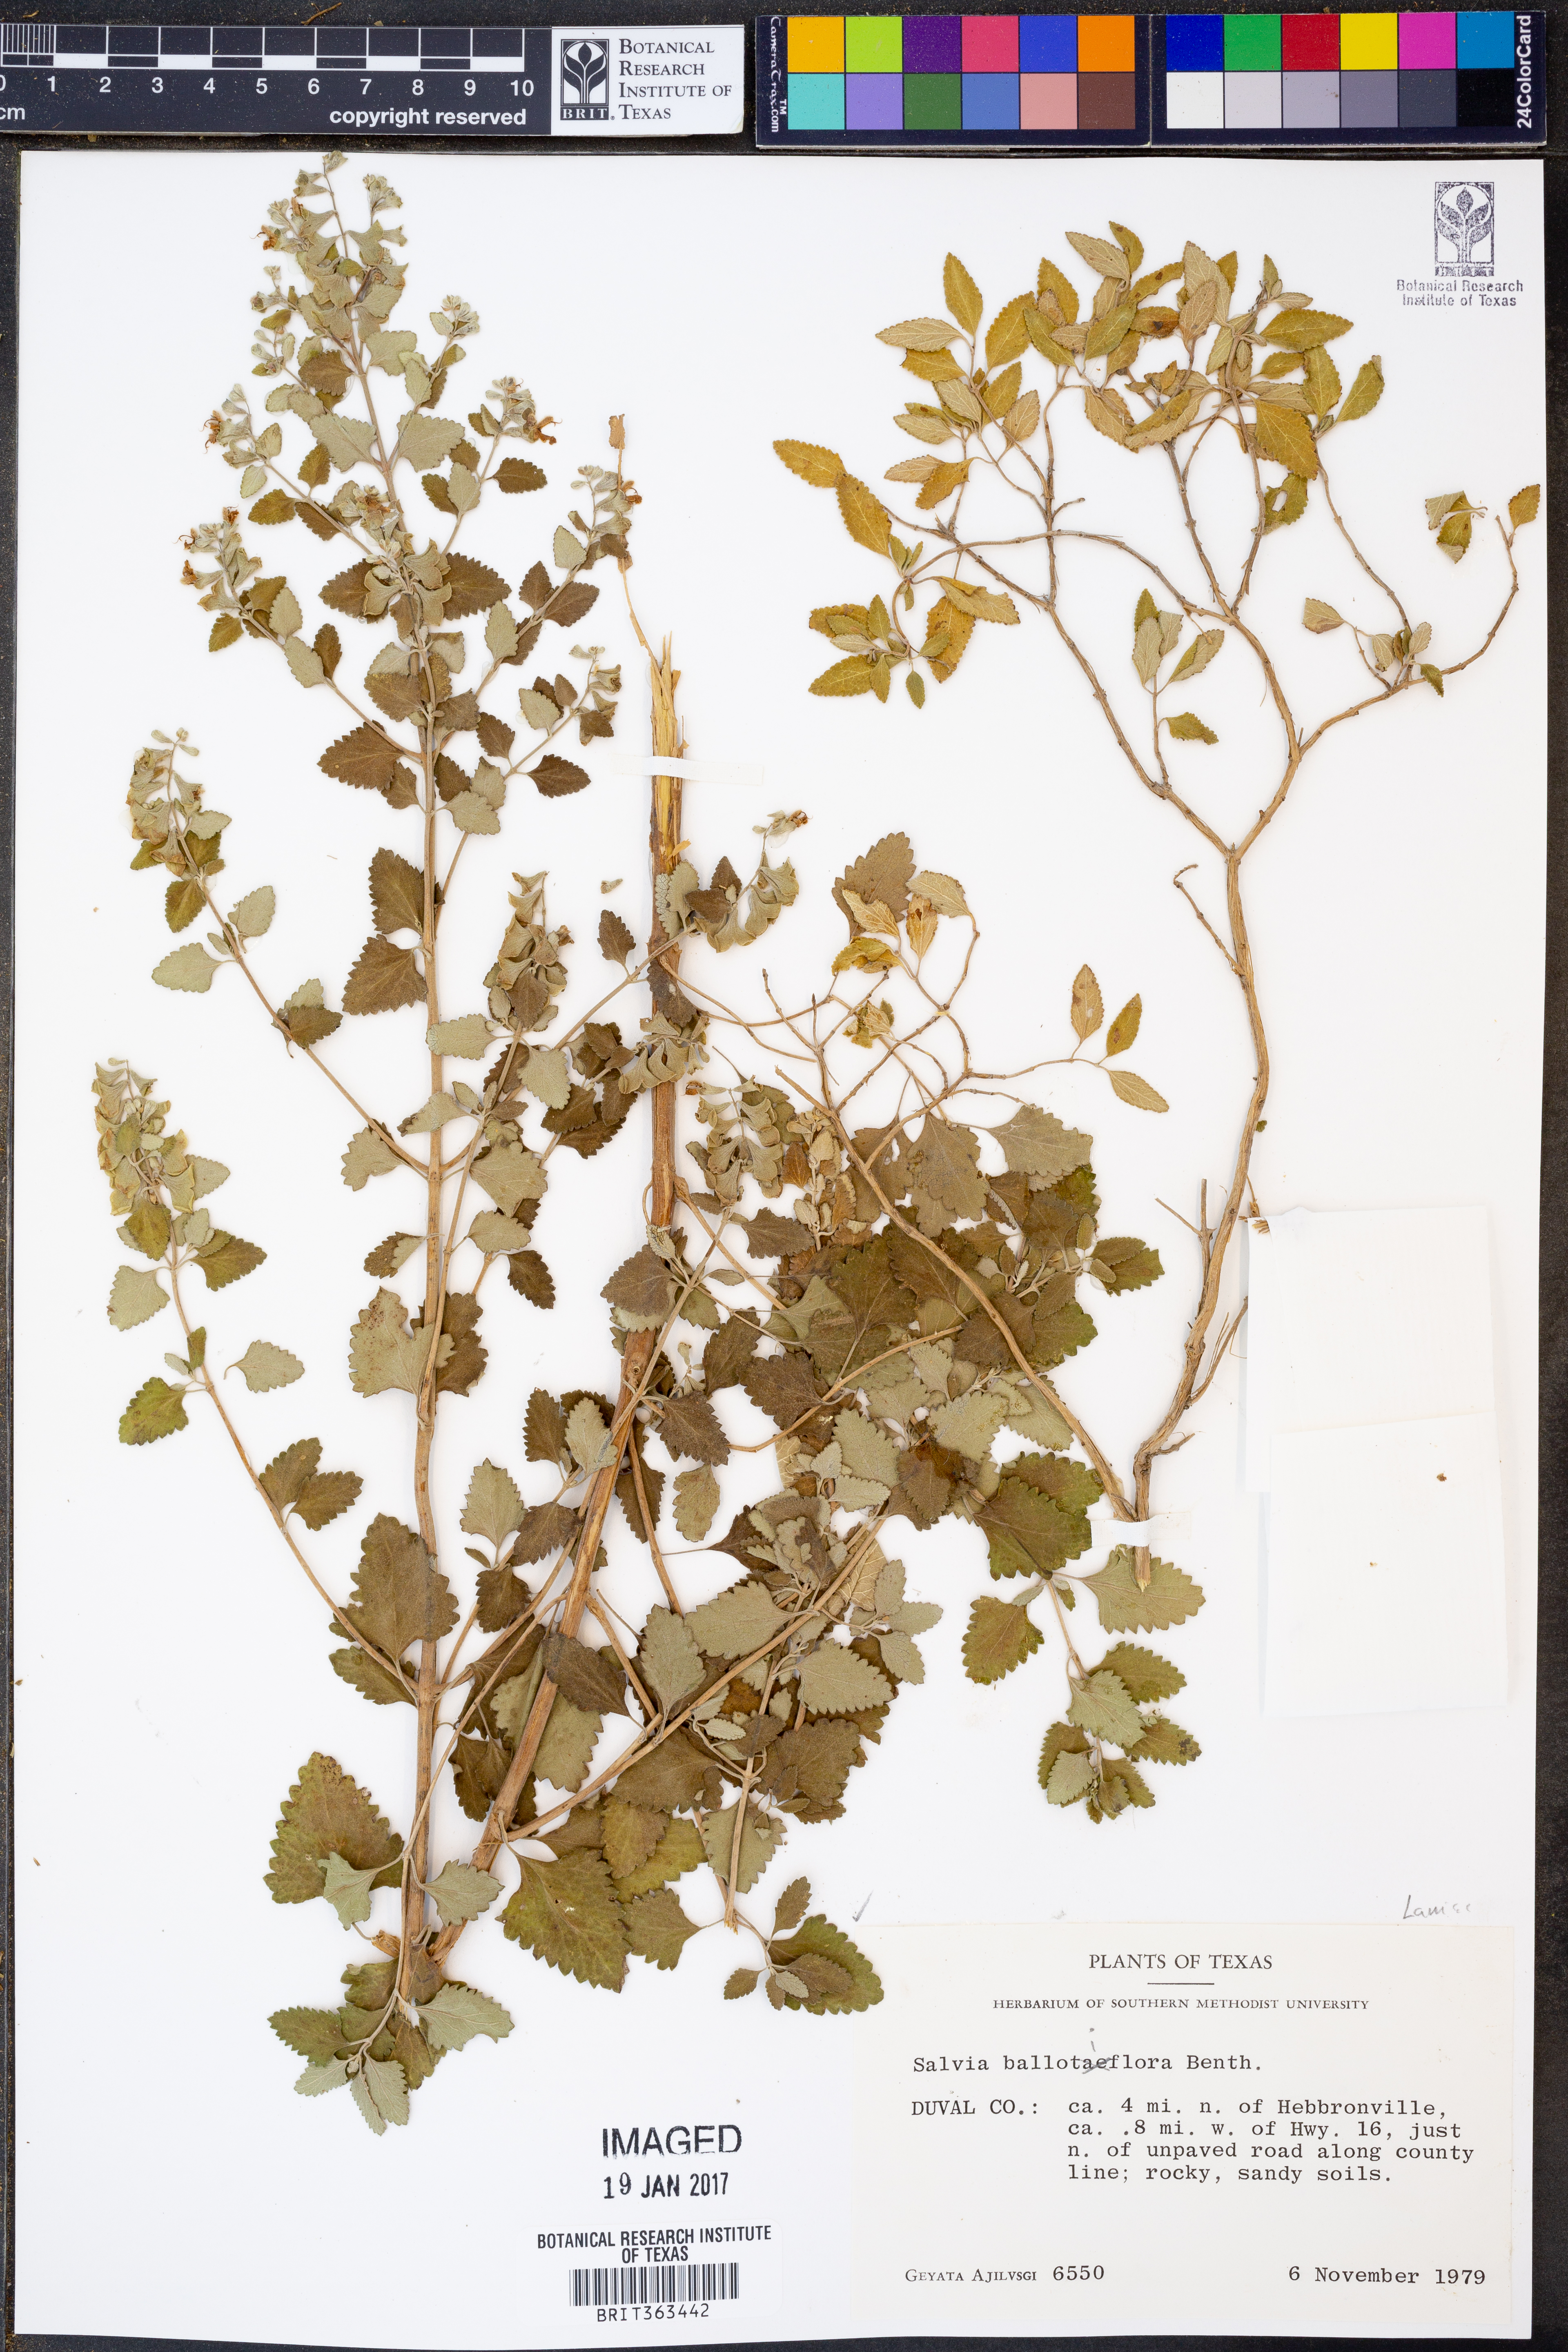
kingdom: Plantae
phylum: Tracheophyta
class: Magnoliopsida
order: Lamiales
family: Lamiaceae
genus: Salvia
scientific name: Salvia ballotiflora
